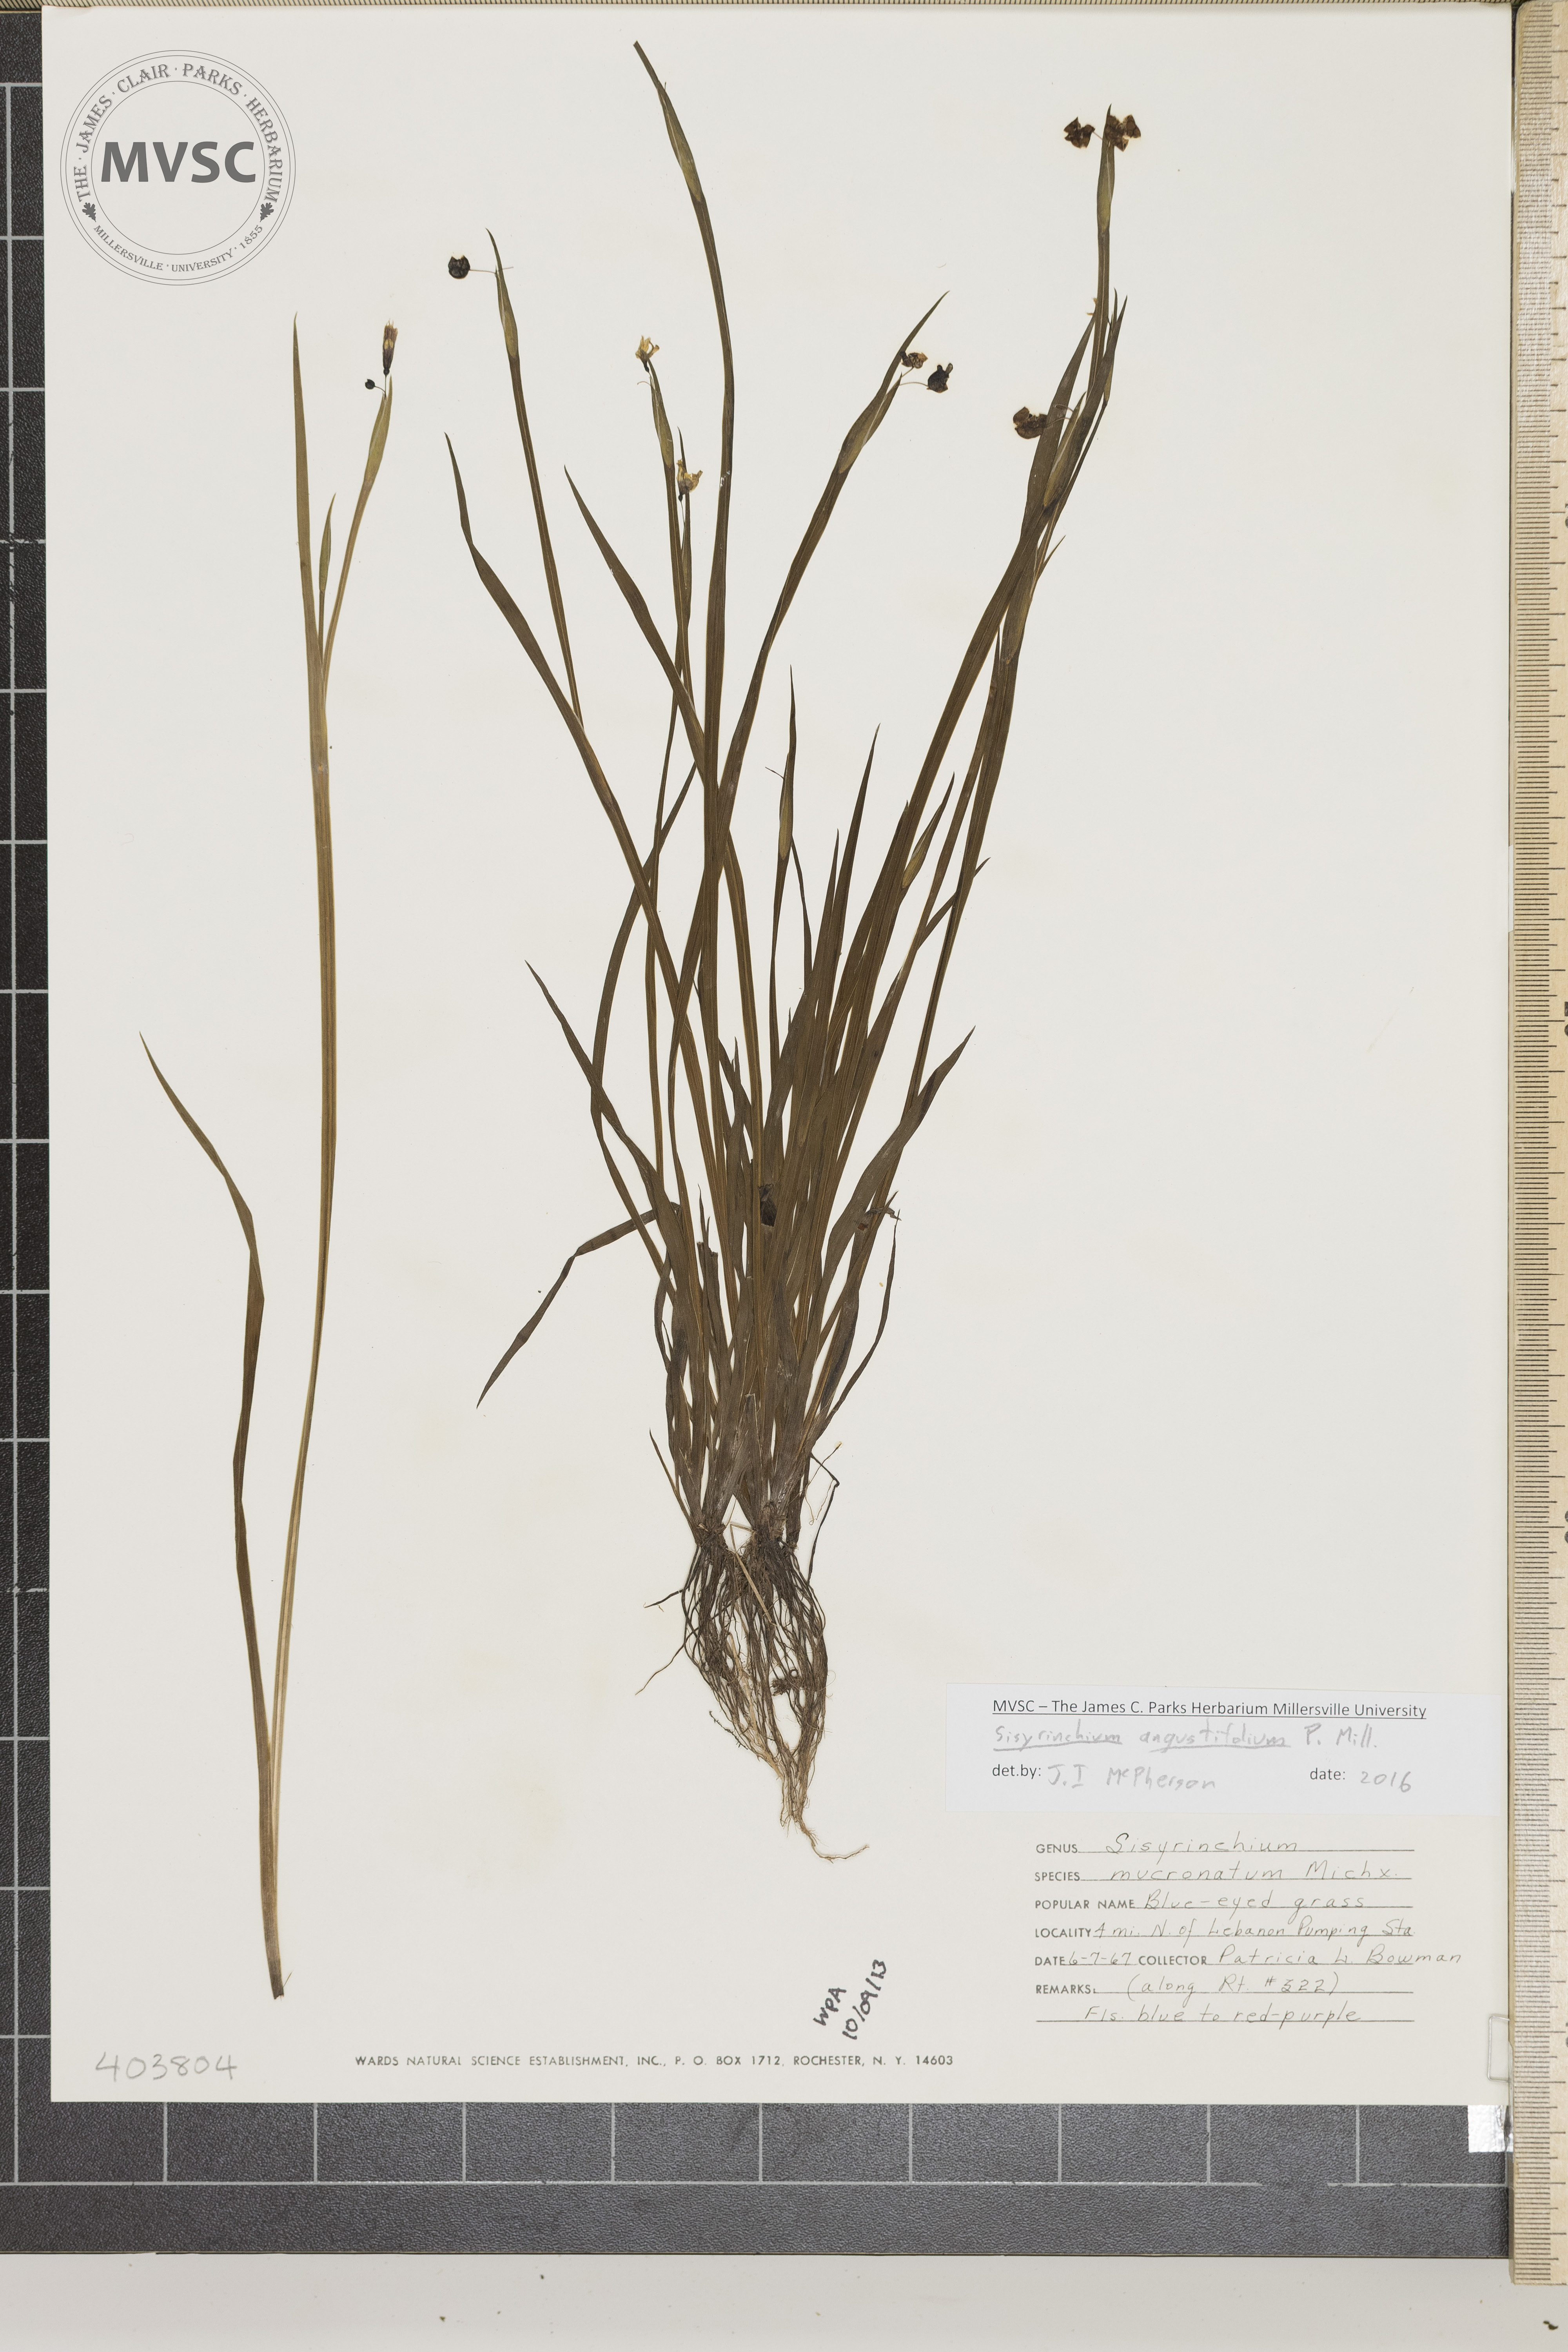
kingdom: Plantae
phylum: Tracheophyta
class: Liliopsida
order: Asparagales
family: Iridaceae
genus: Sisyrinchium
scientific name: Sisyrinchium angustifolium
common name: Blue-eyed Grass
